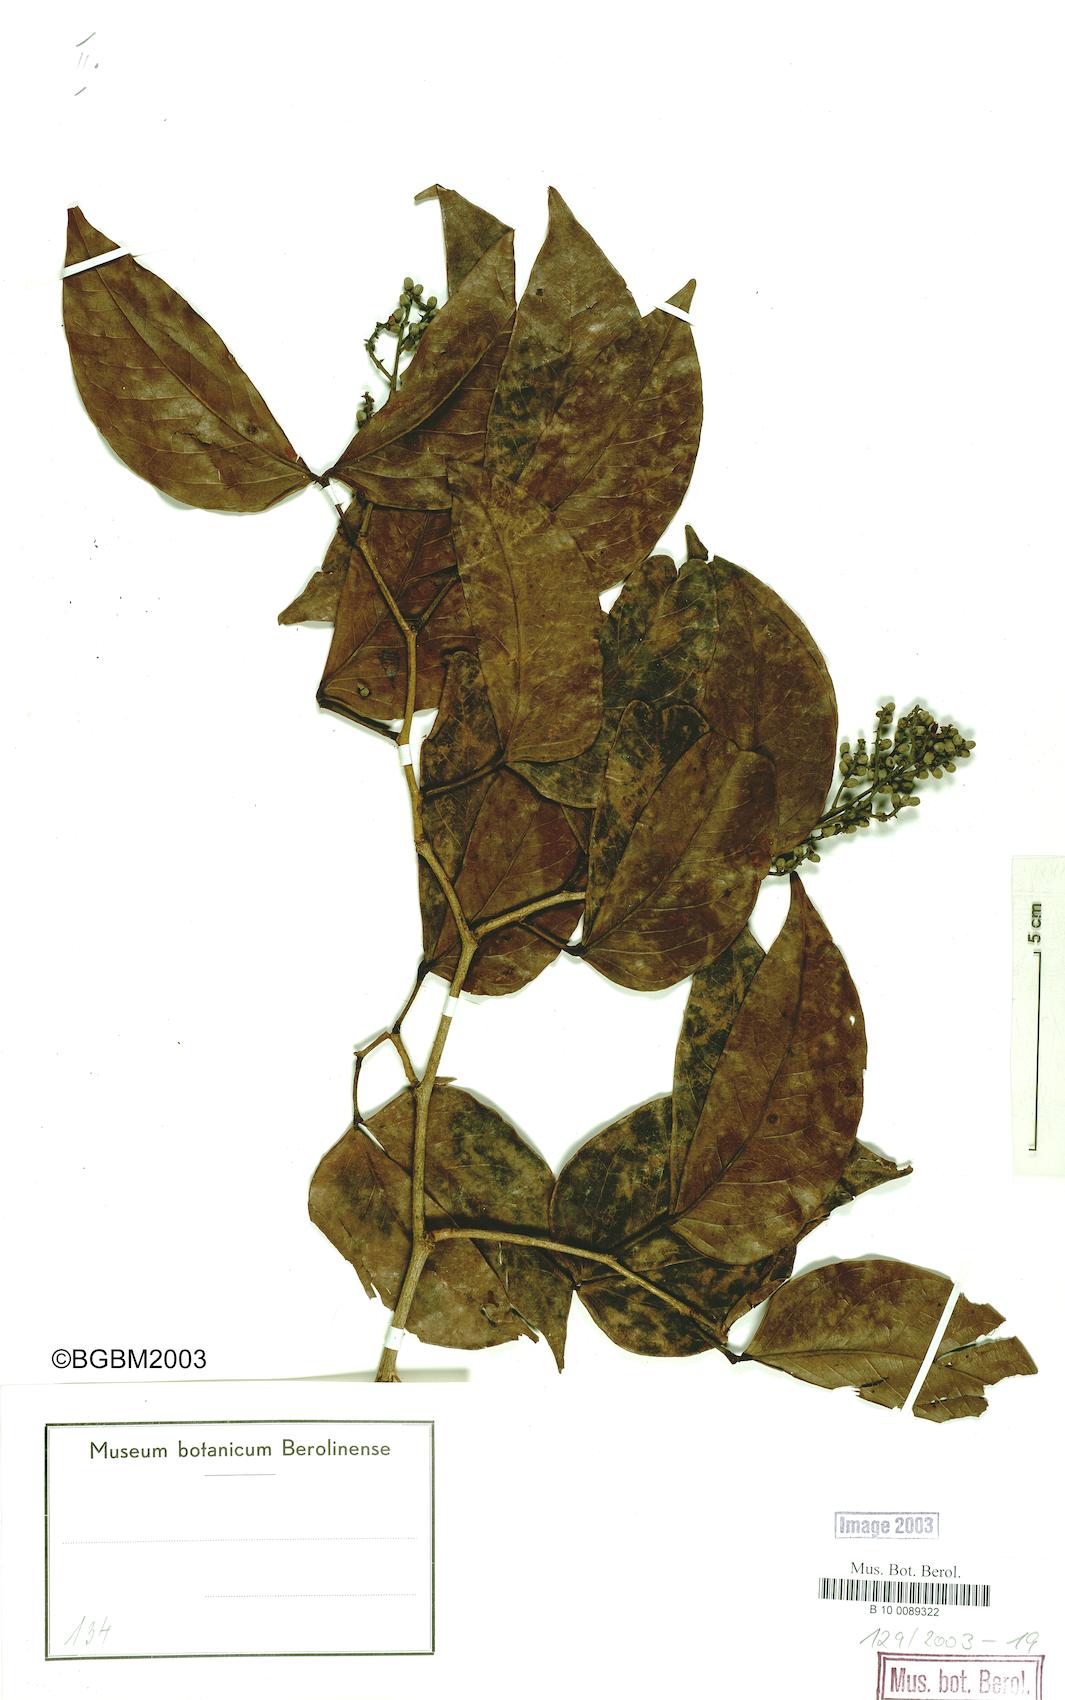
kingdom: Plantae
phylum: Tracheophyta
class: Magnoliopsida
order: Fabales
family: Fabaceae
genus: Guibourtia
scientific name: Guibourtia demeusei
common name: African rosewood
